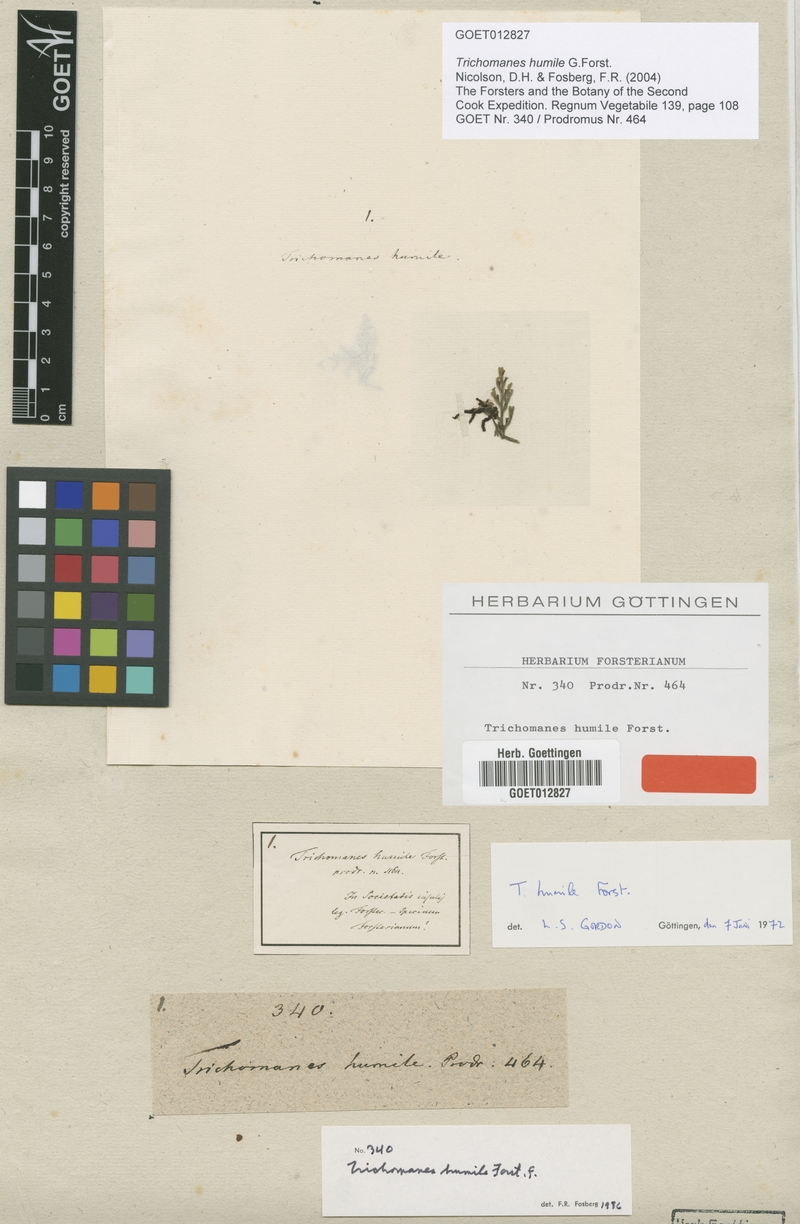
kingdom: Plantae
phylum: Tracheophyta
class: Polypodiopsida
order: Hymenophyllales
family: Hymenophyllaceae
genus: Crepidomanes
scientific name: Crepidomanes humile
